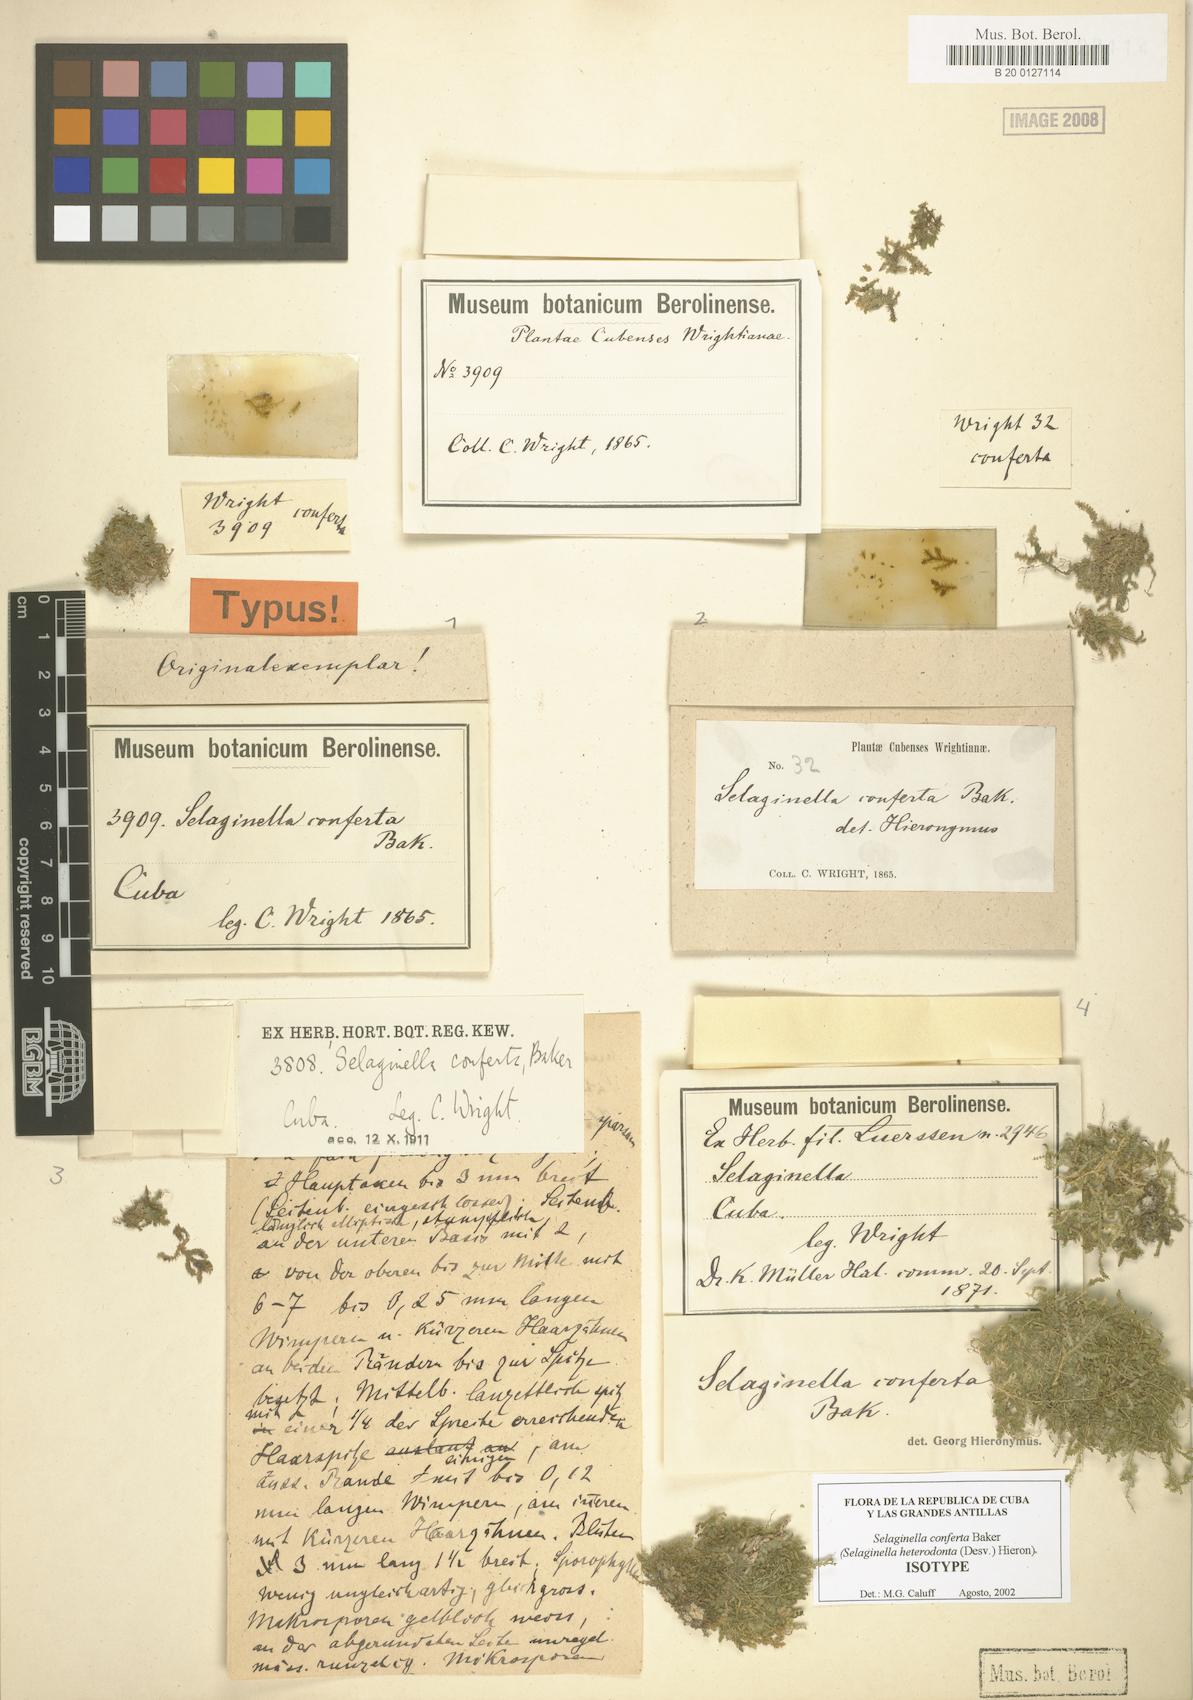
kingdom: Plantae
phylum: Tracheophyta
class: Lycopodiopsida
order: Selaginellales
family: Selaginellaceae
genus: Selaginella
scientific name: Selaginella heterodonta
